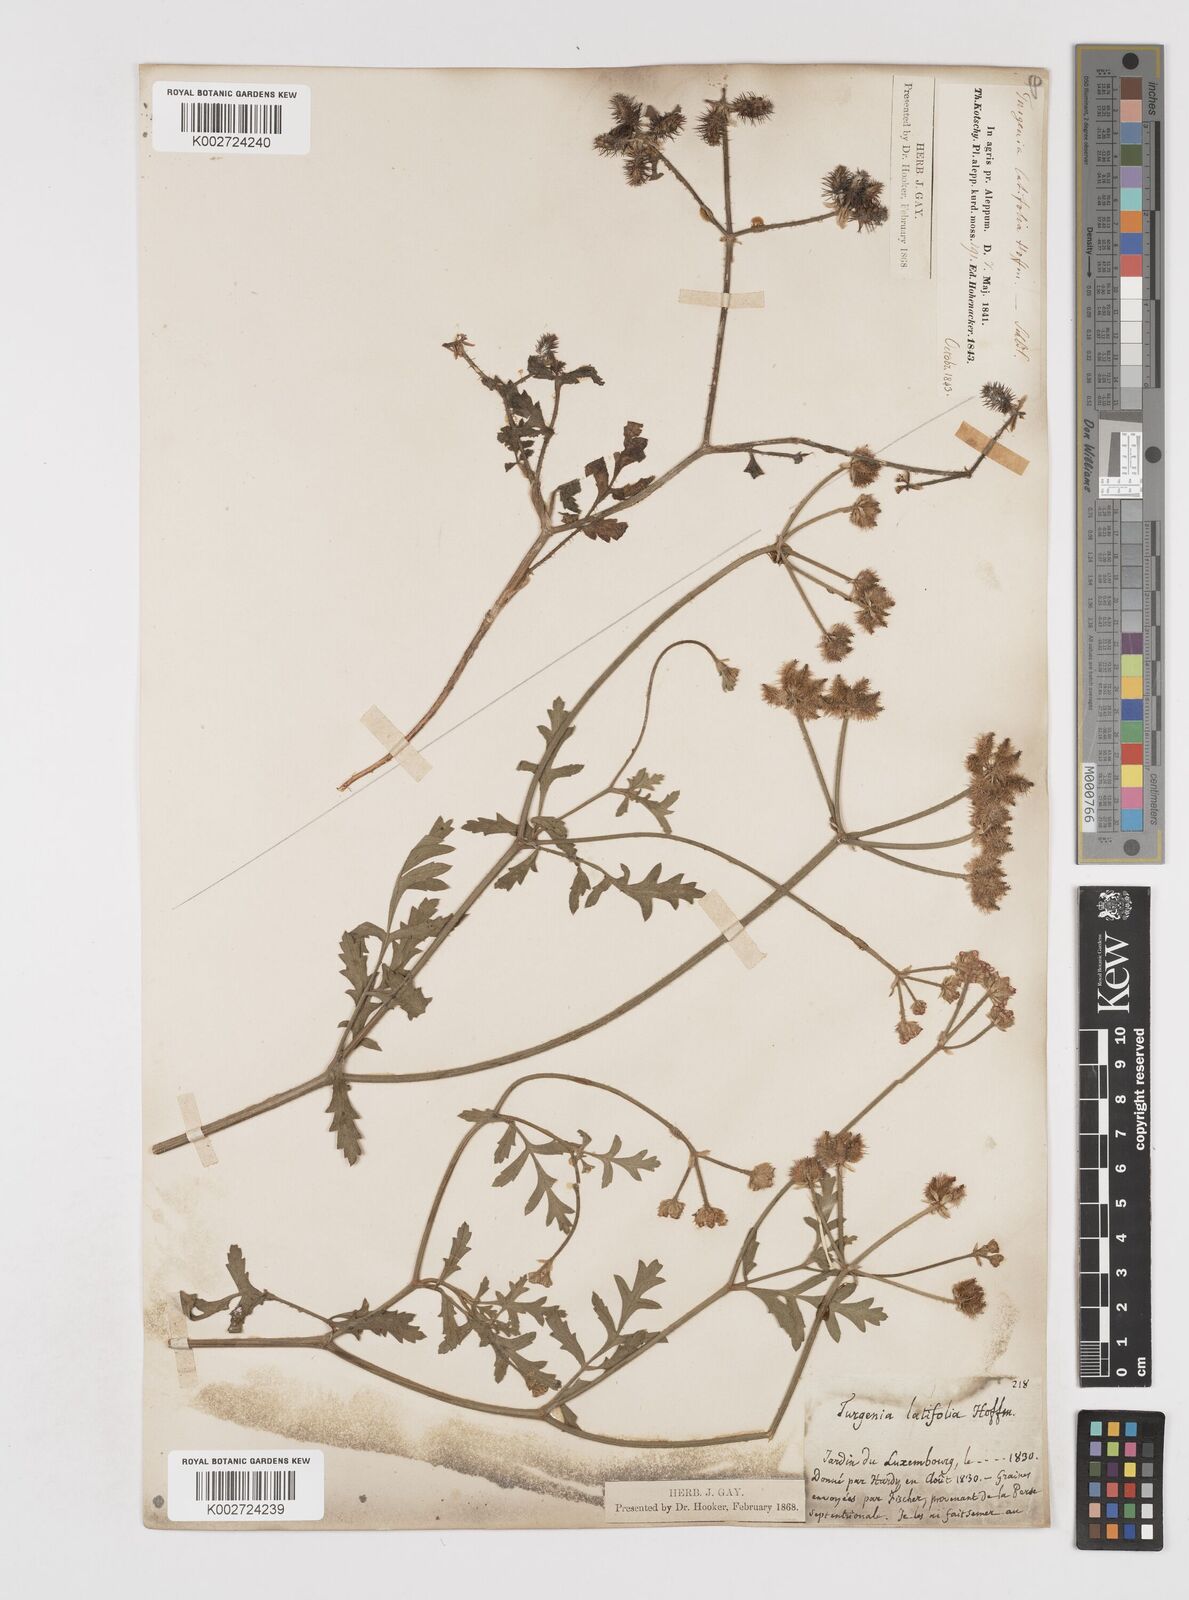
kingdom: Plantae
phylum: Tracheophyta
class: Magnoliopsida
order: Apiales
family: Apiaceae
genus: Turgenia
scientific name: Turgenia latifolia
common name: Greater bur-parsley
